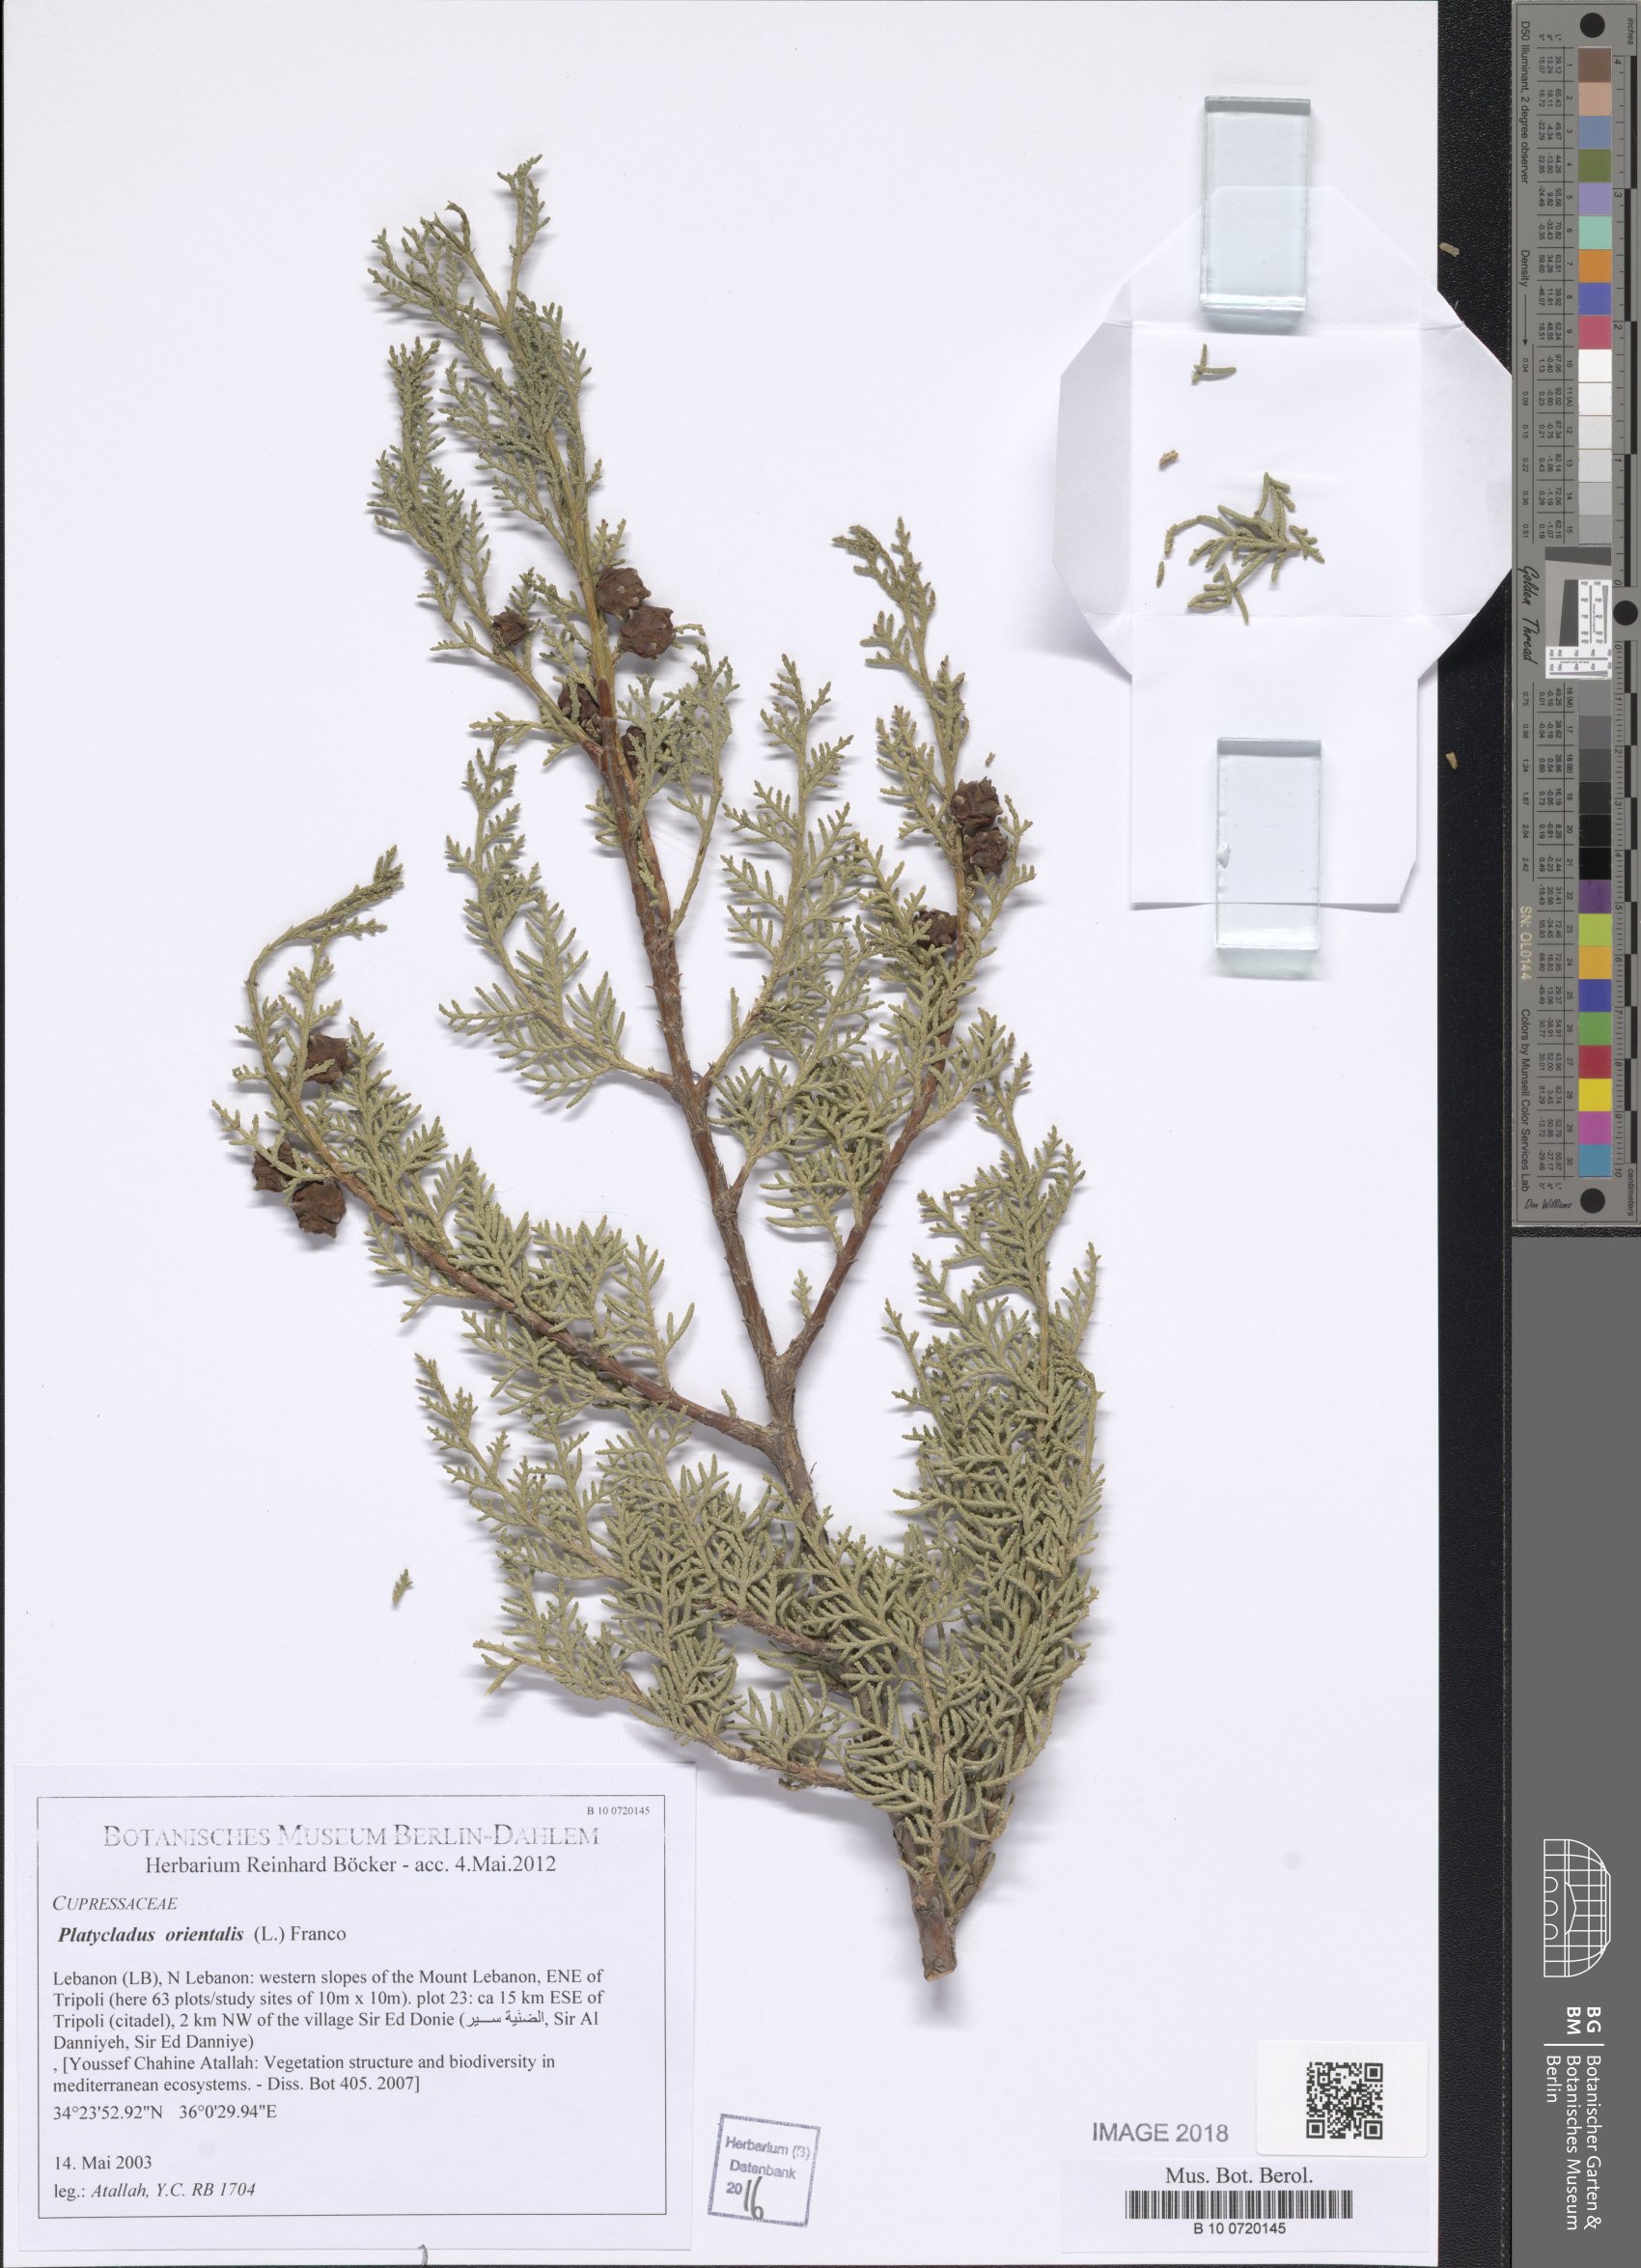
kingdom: Plantae
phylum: Tracheophyta
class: Pinopsida
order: Pinales
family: Cupressaceae
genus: Platycladus
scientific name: Platycladus orientalis
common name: Chinese thuja
